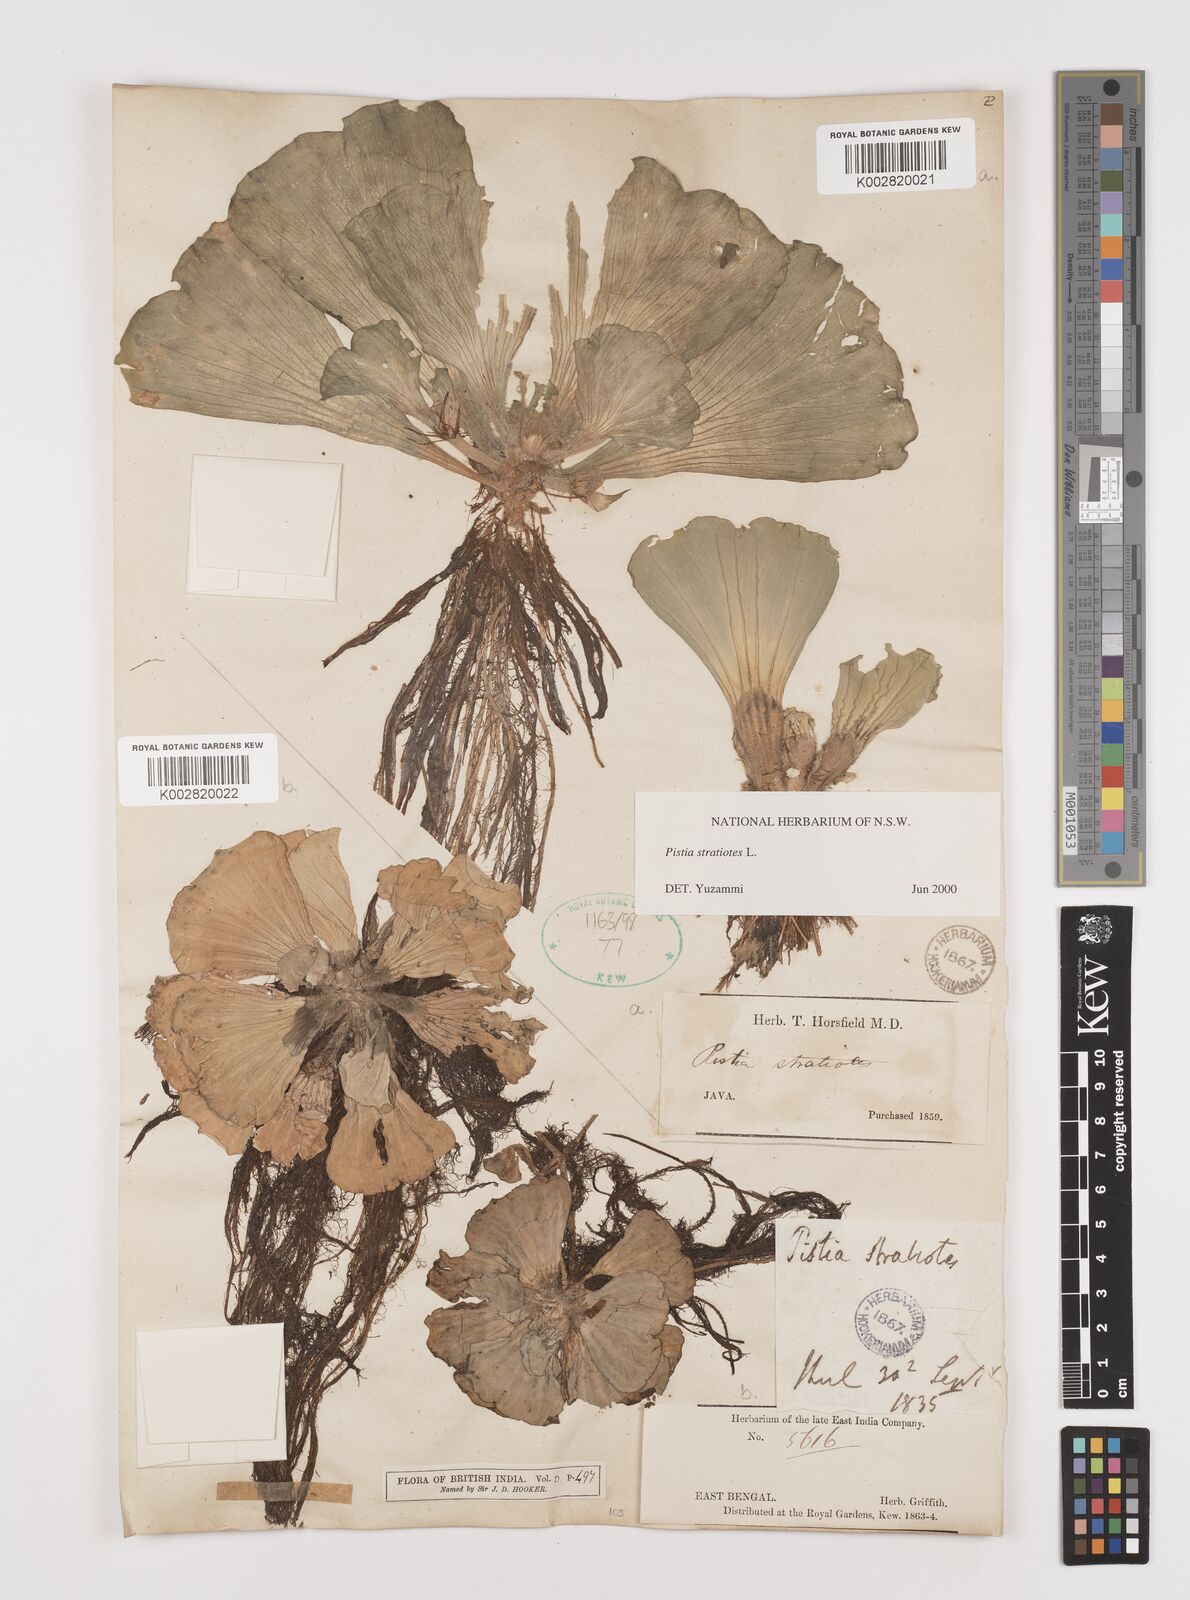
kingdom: Plantae
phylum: Tracheophyta
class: Liliopsida
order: Alismatales
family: Araceae
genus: Pistia
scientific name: Pistia stratiotes
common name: Water lettuce
